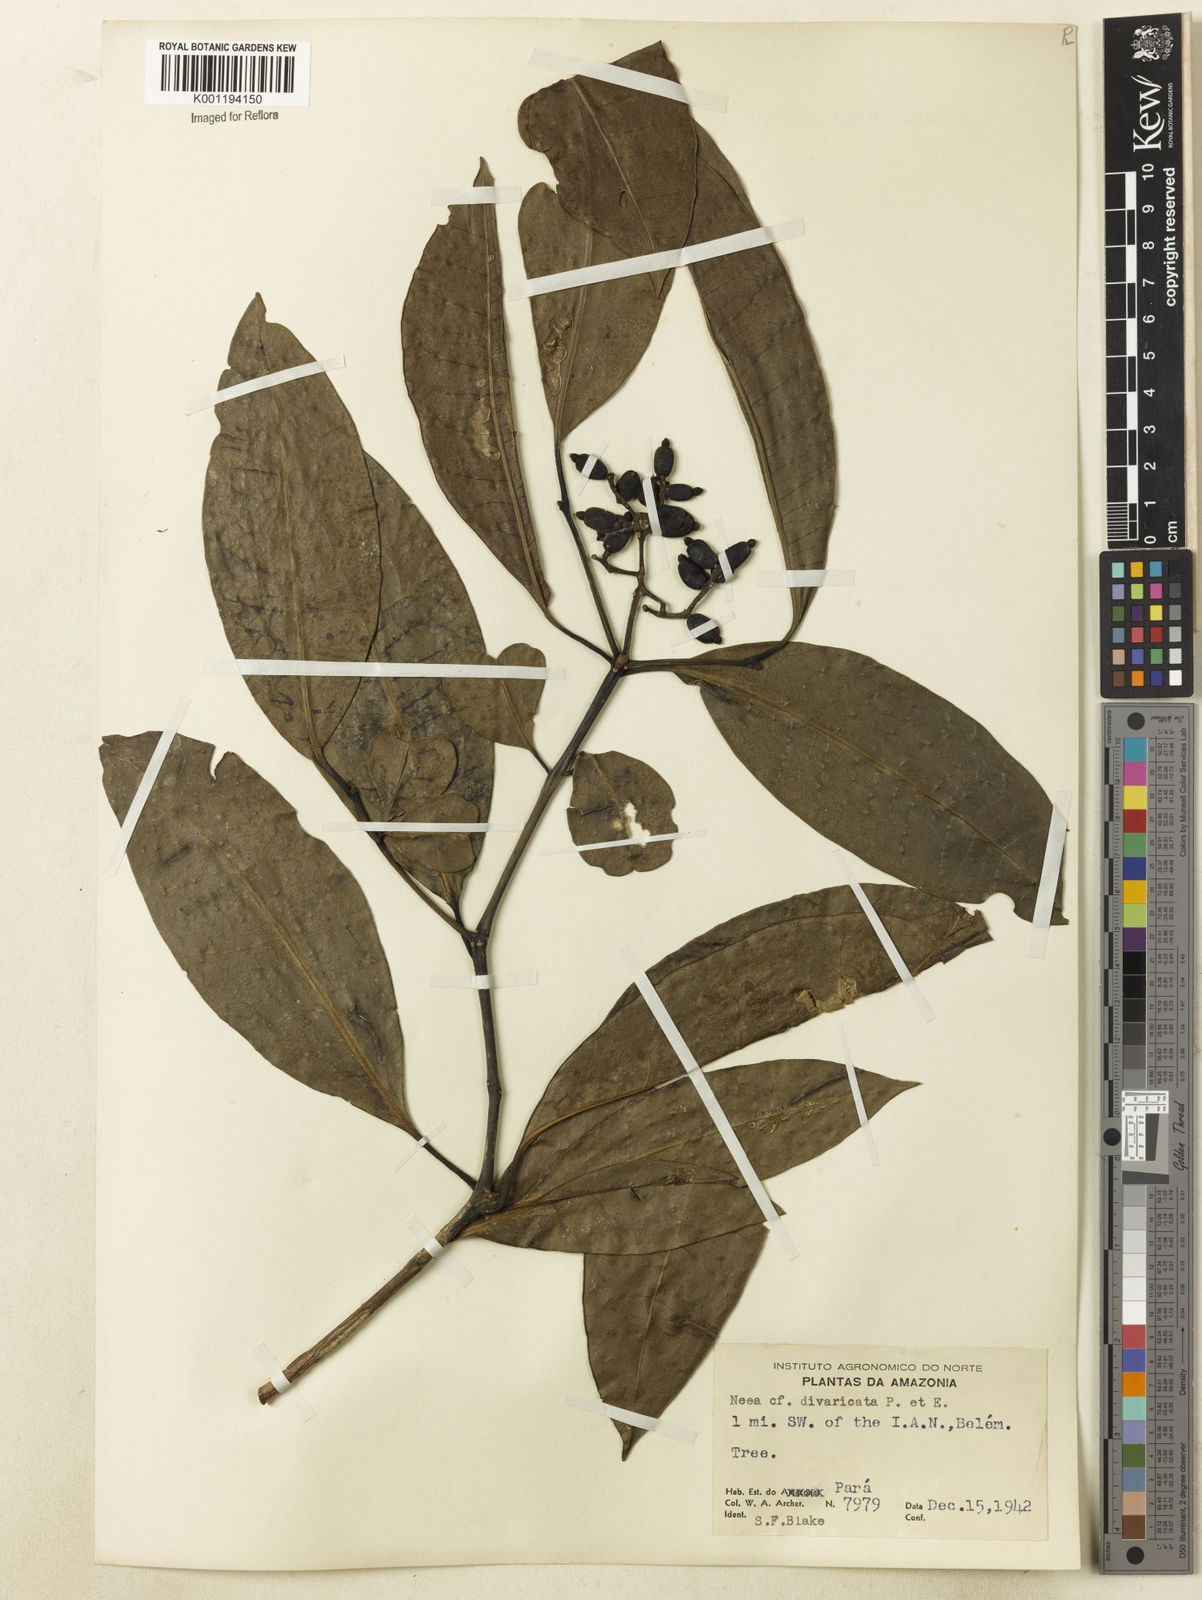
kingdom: Plantae
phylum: Tracheophyta
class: Magnoliopsida
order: Caryophyllales
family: Nyctaginaceae
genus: Neea
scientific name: Neea divaricata
